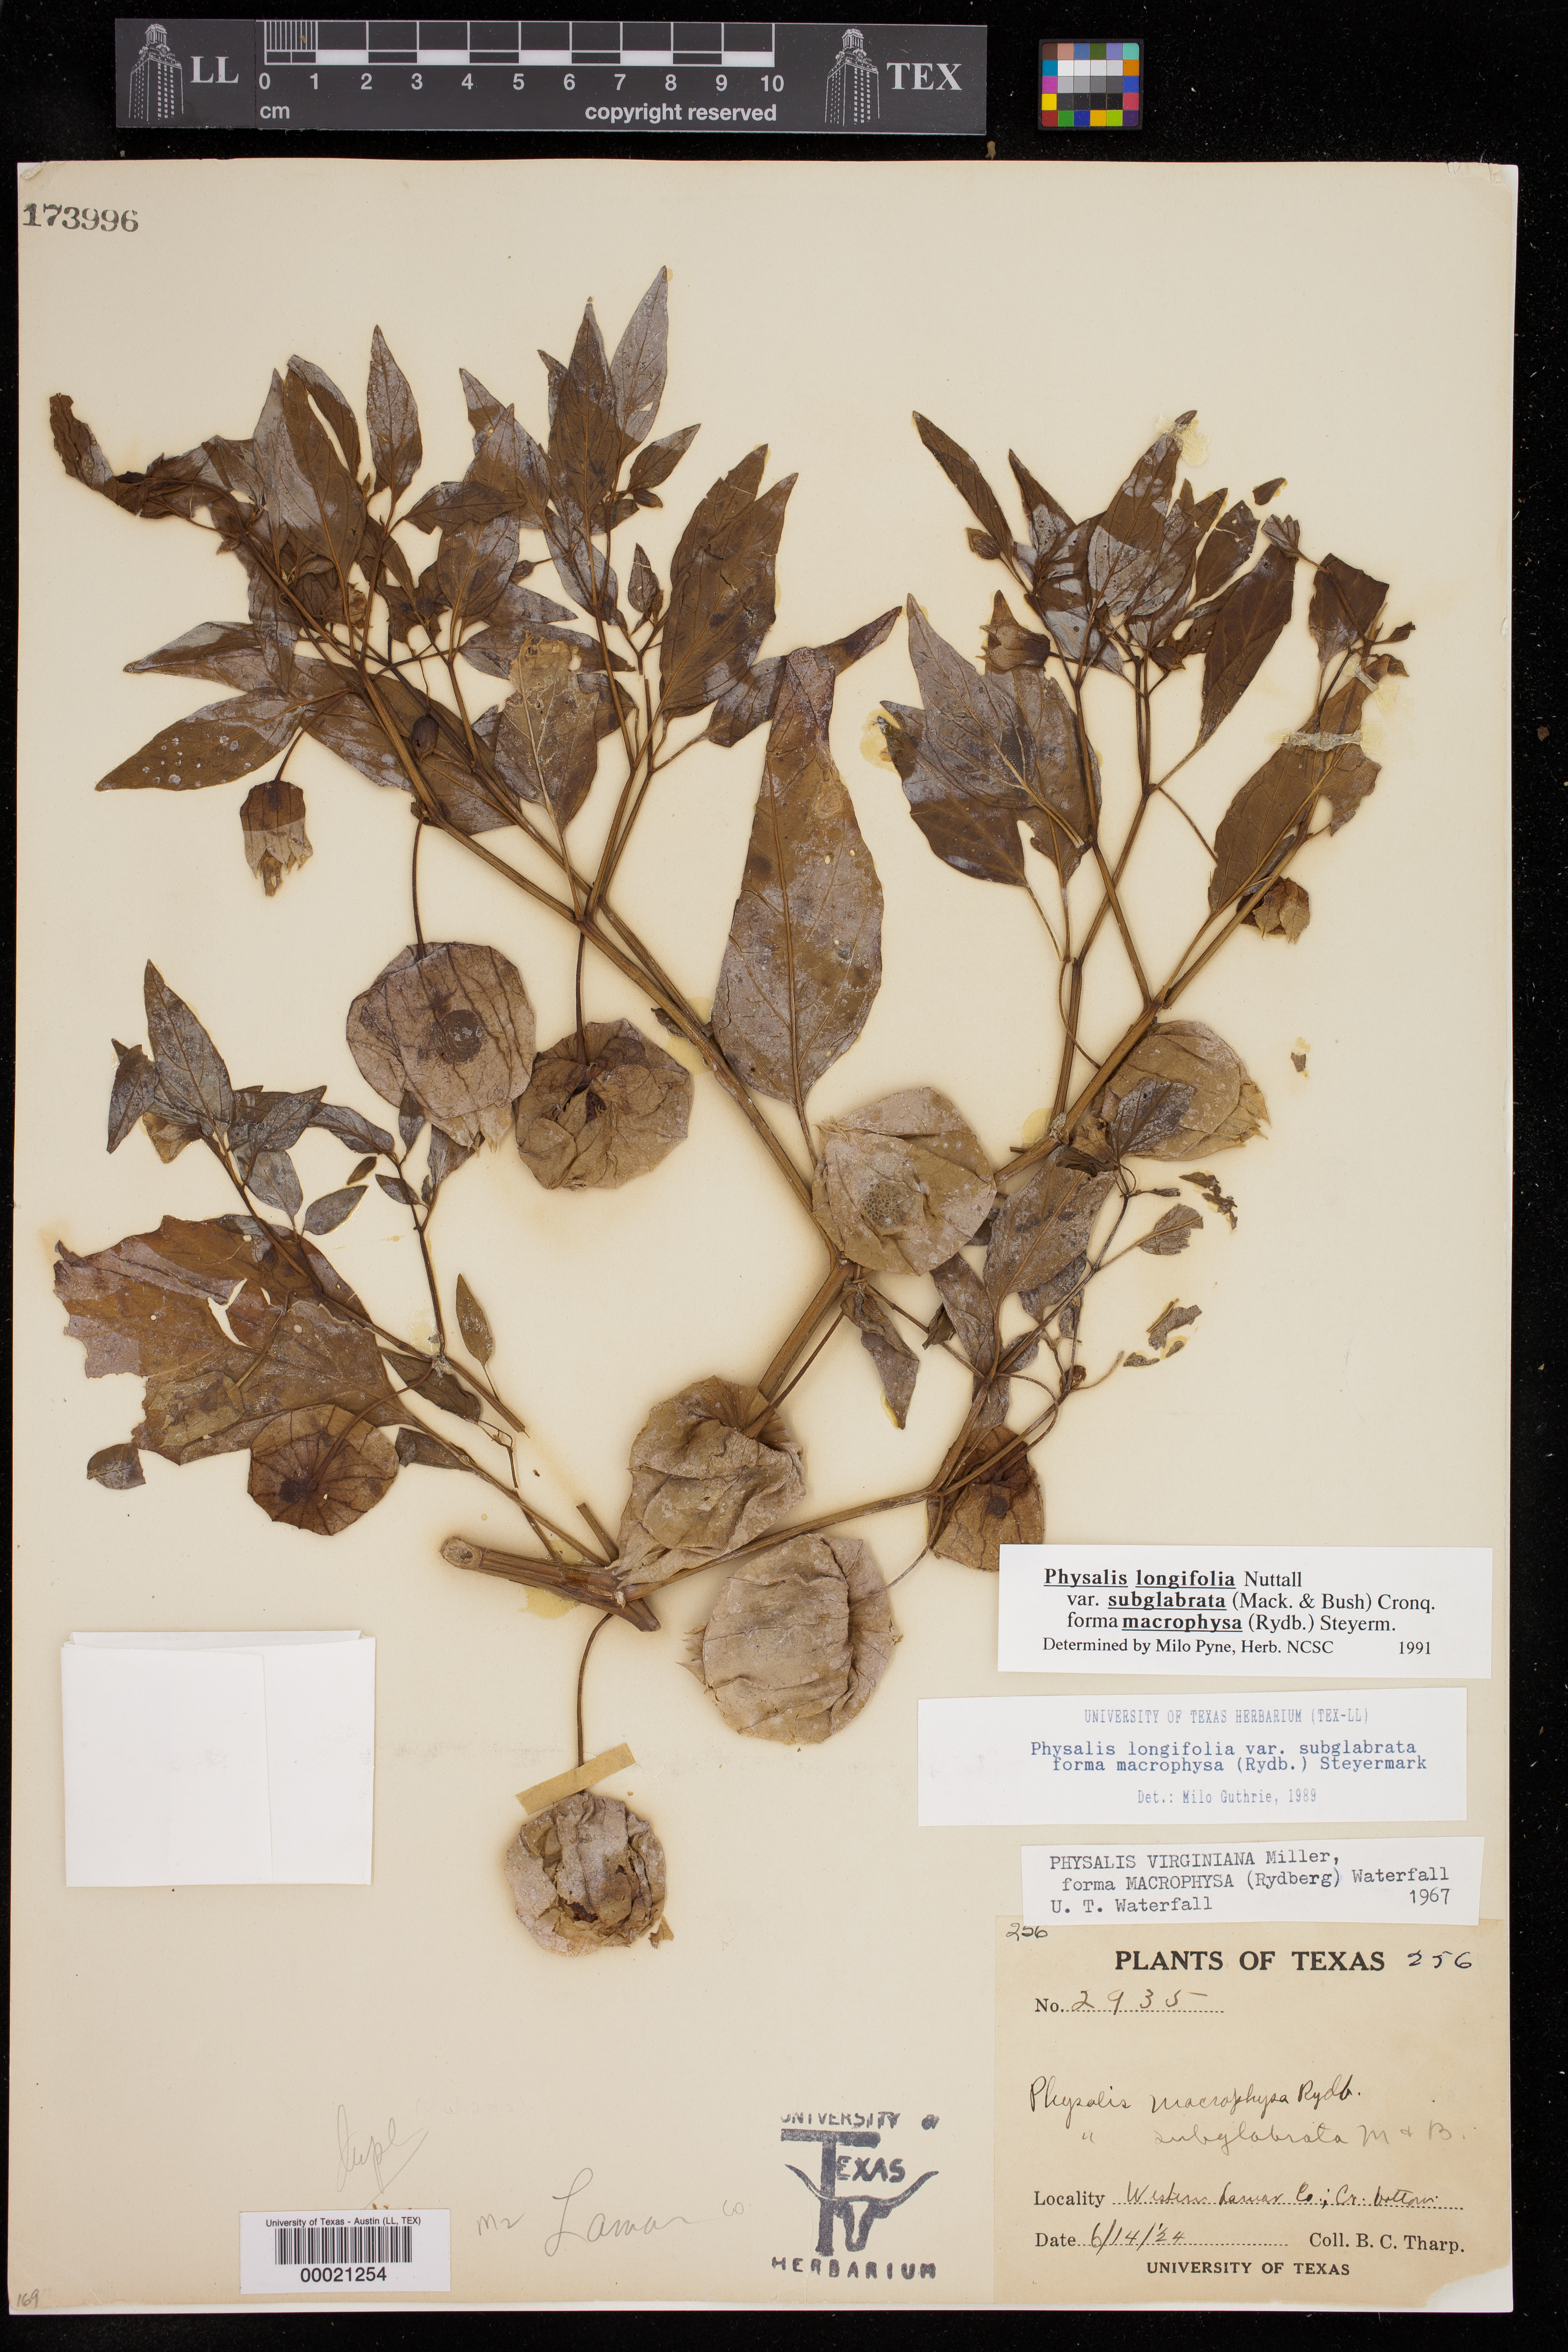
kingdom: Plantae
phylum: Tracheophyta
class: Magnoliopsida
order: Solanales
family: Solanaceae
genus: Physalis
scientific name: Physalis longifolia
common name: Common ground-cherry
